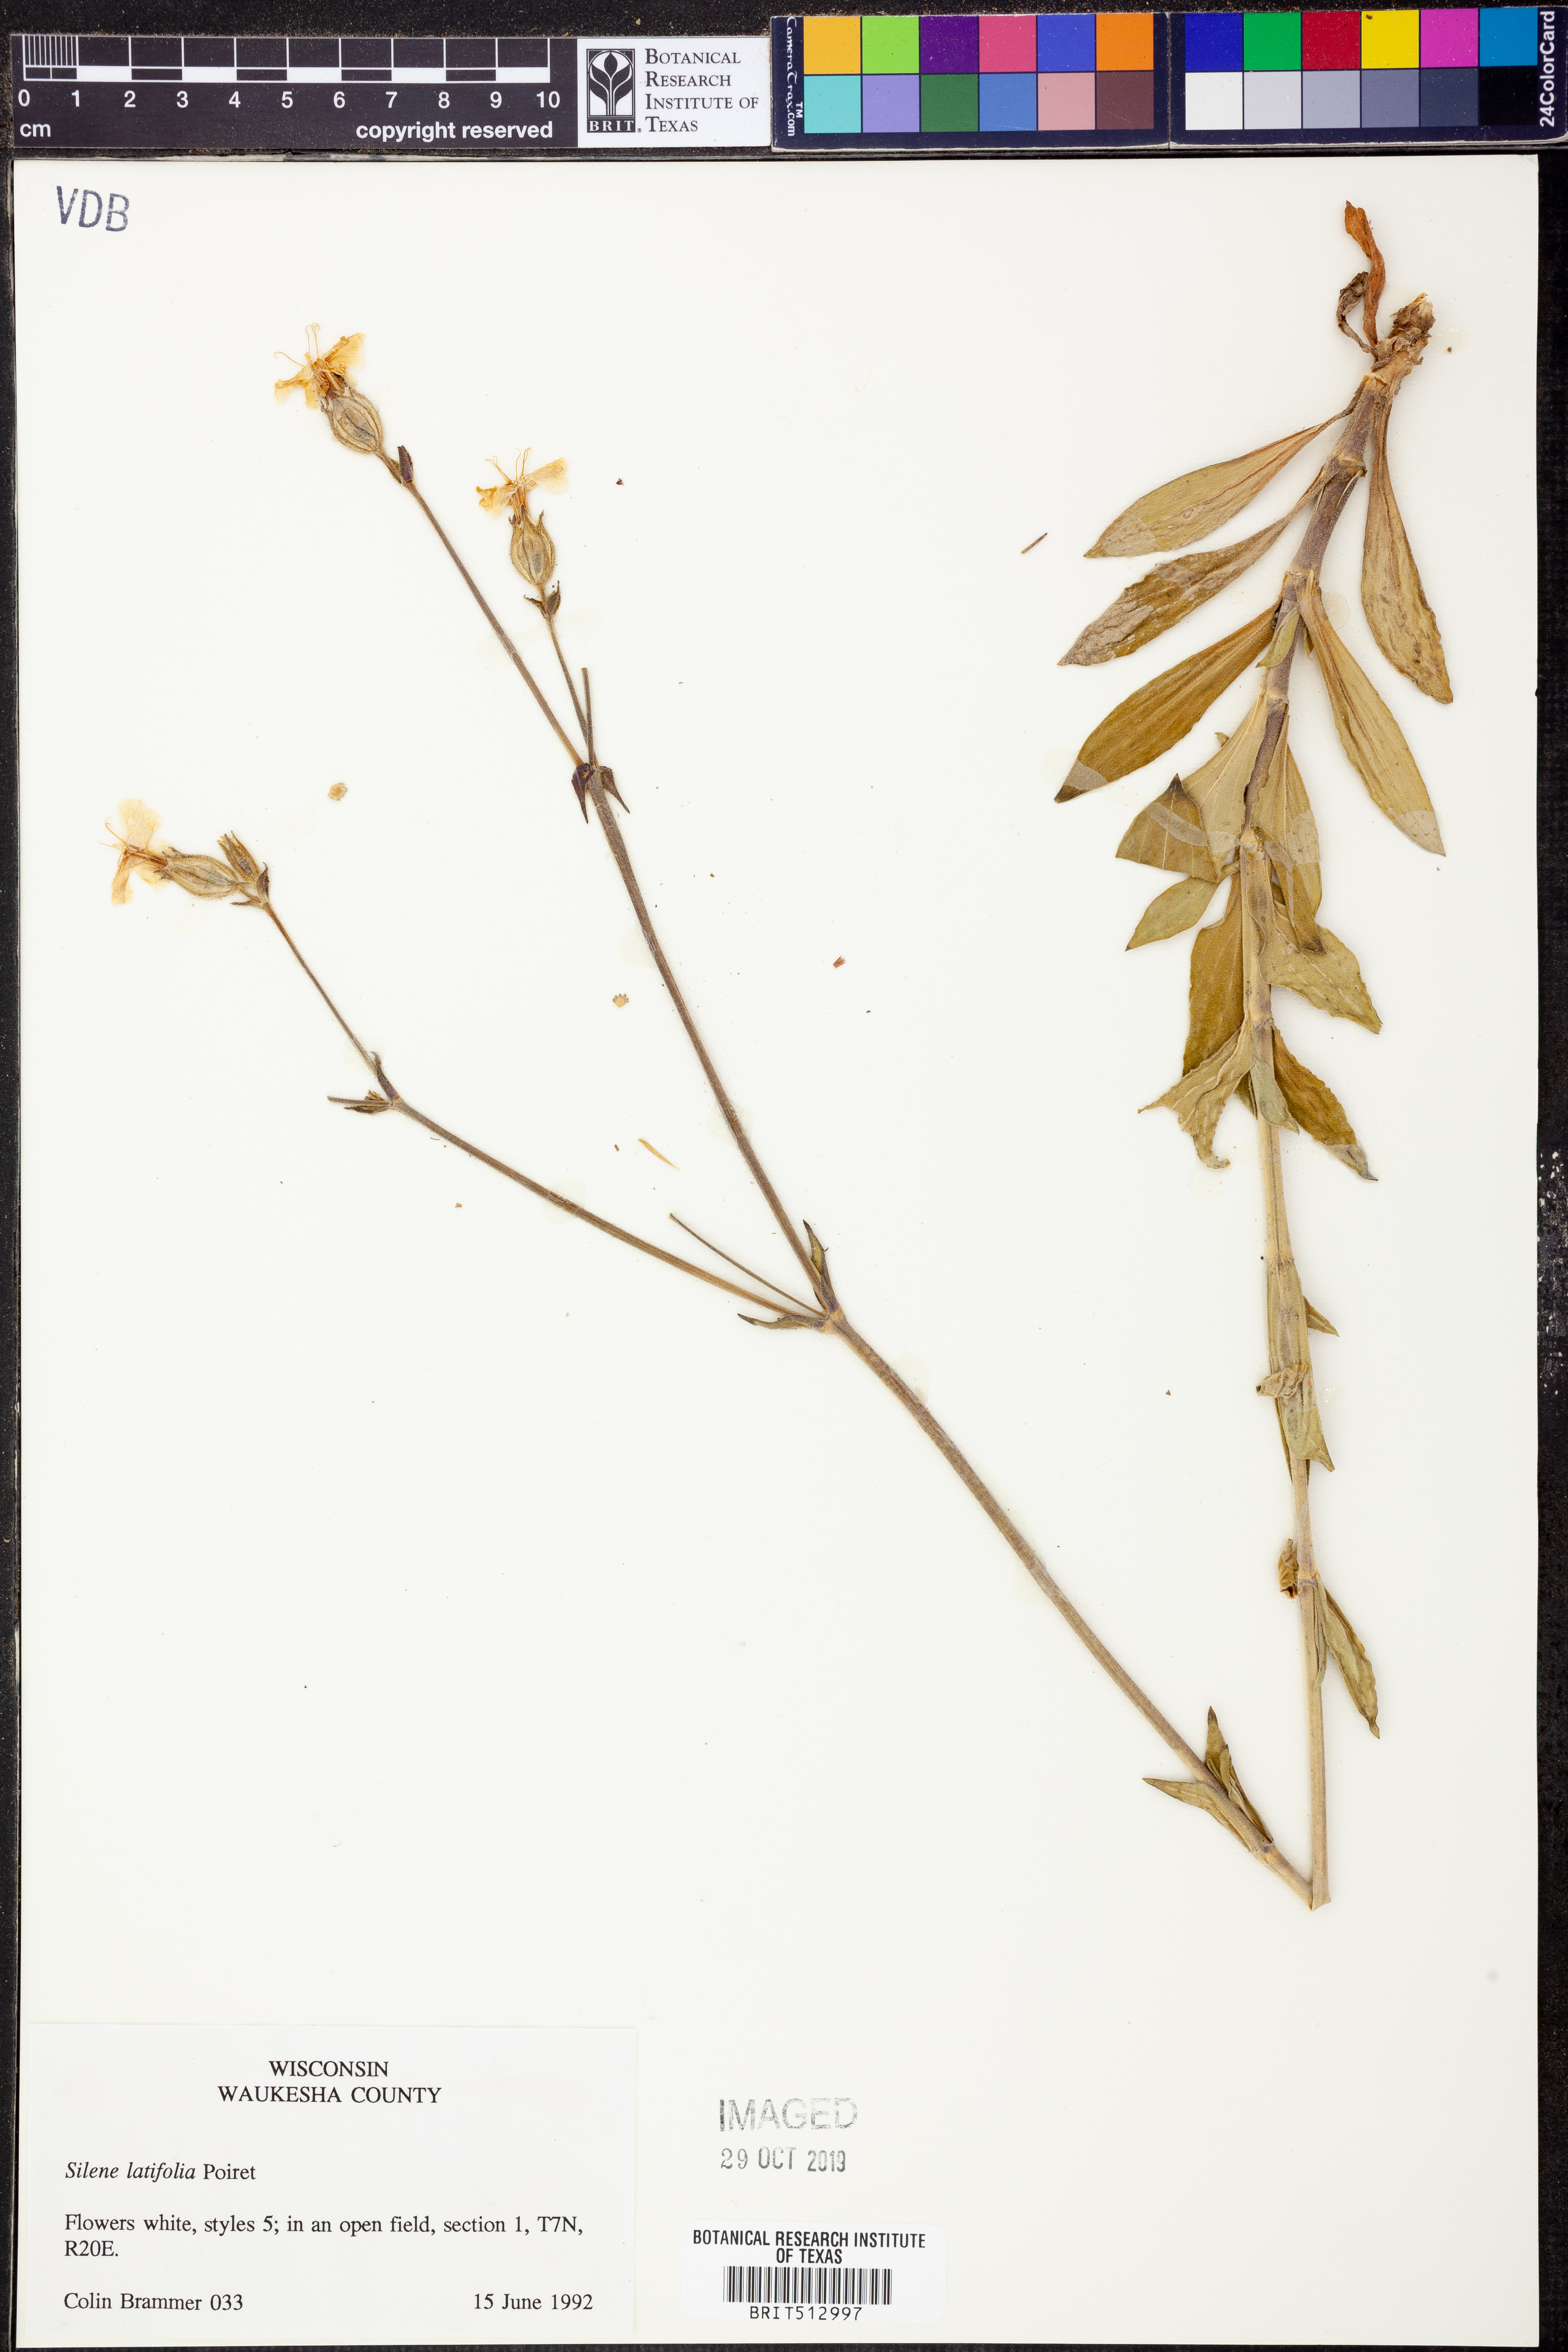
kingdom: Plantae
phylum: Tracheophyta
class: Magnoliopsida
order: Caryophyllales
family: Caryophyllaceae
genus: Silene
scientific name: Silene latifolia
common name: White campion
